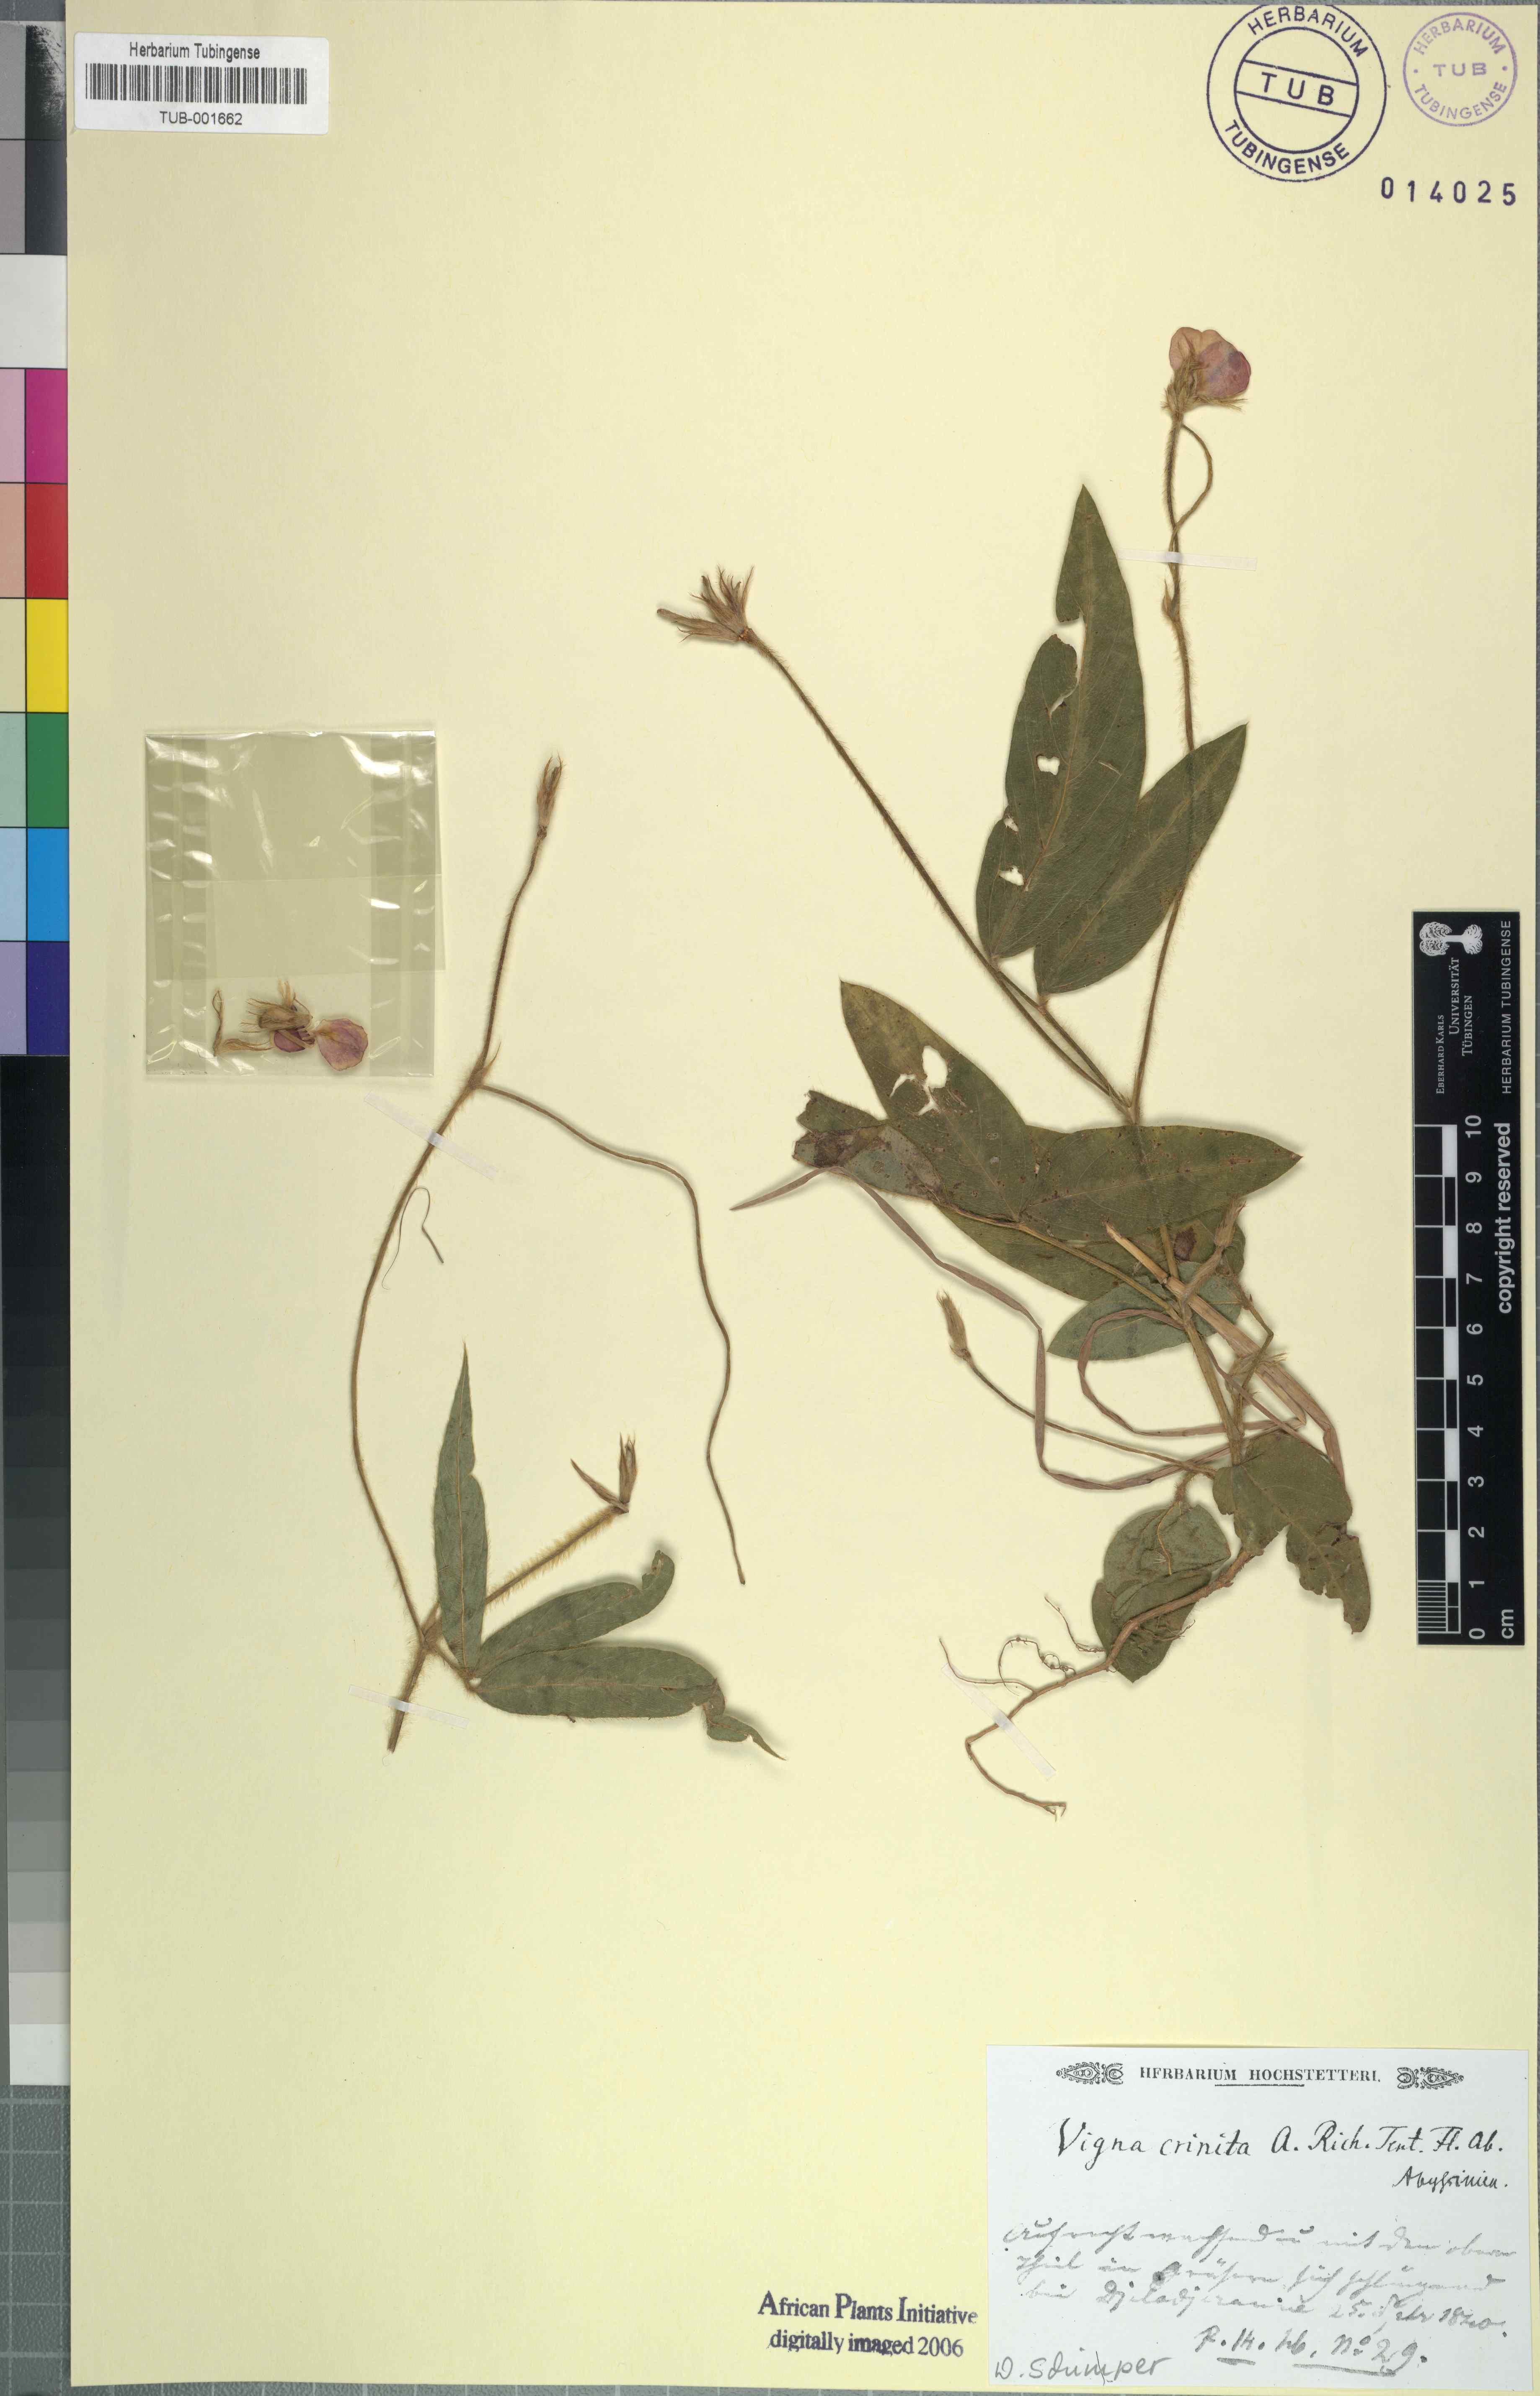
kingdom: Plantae
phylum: Tracheophyta
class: Magnoliopsida
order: Fabales
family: Fabaceae
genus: Vigna
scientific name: Vigna vexillata
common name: Zombi pea
